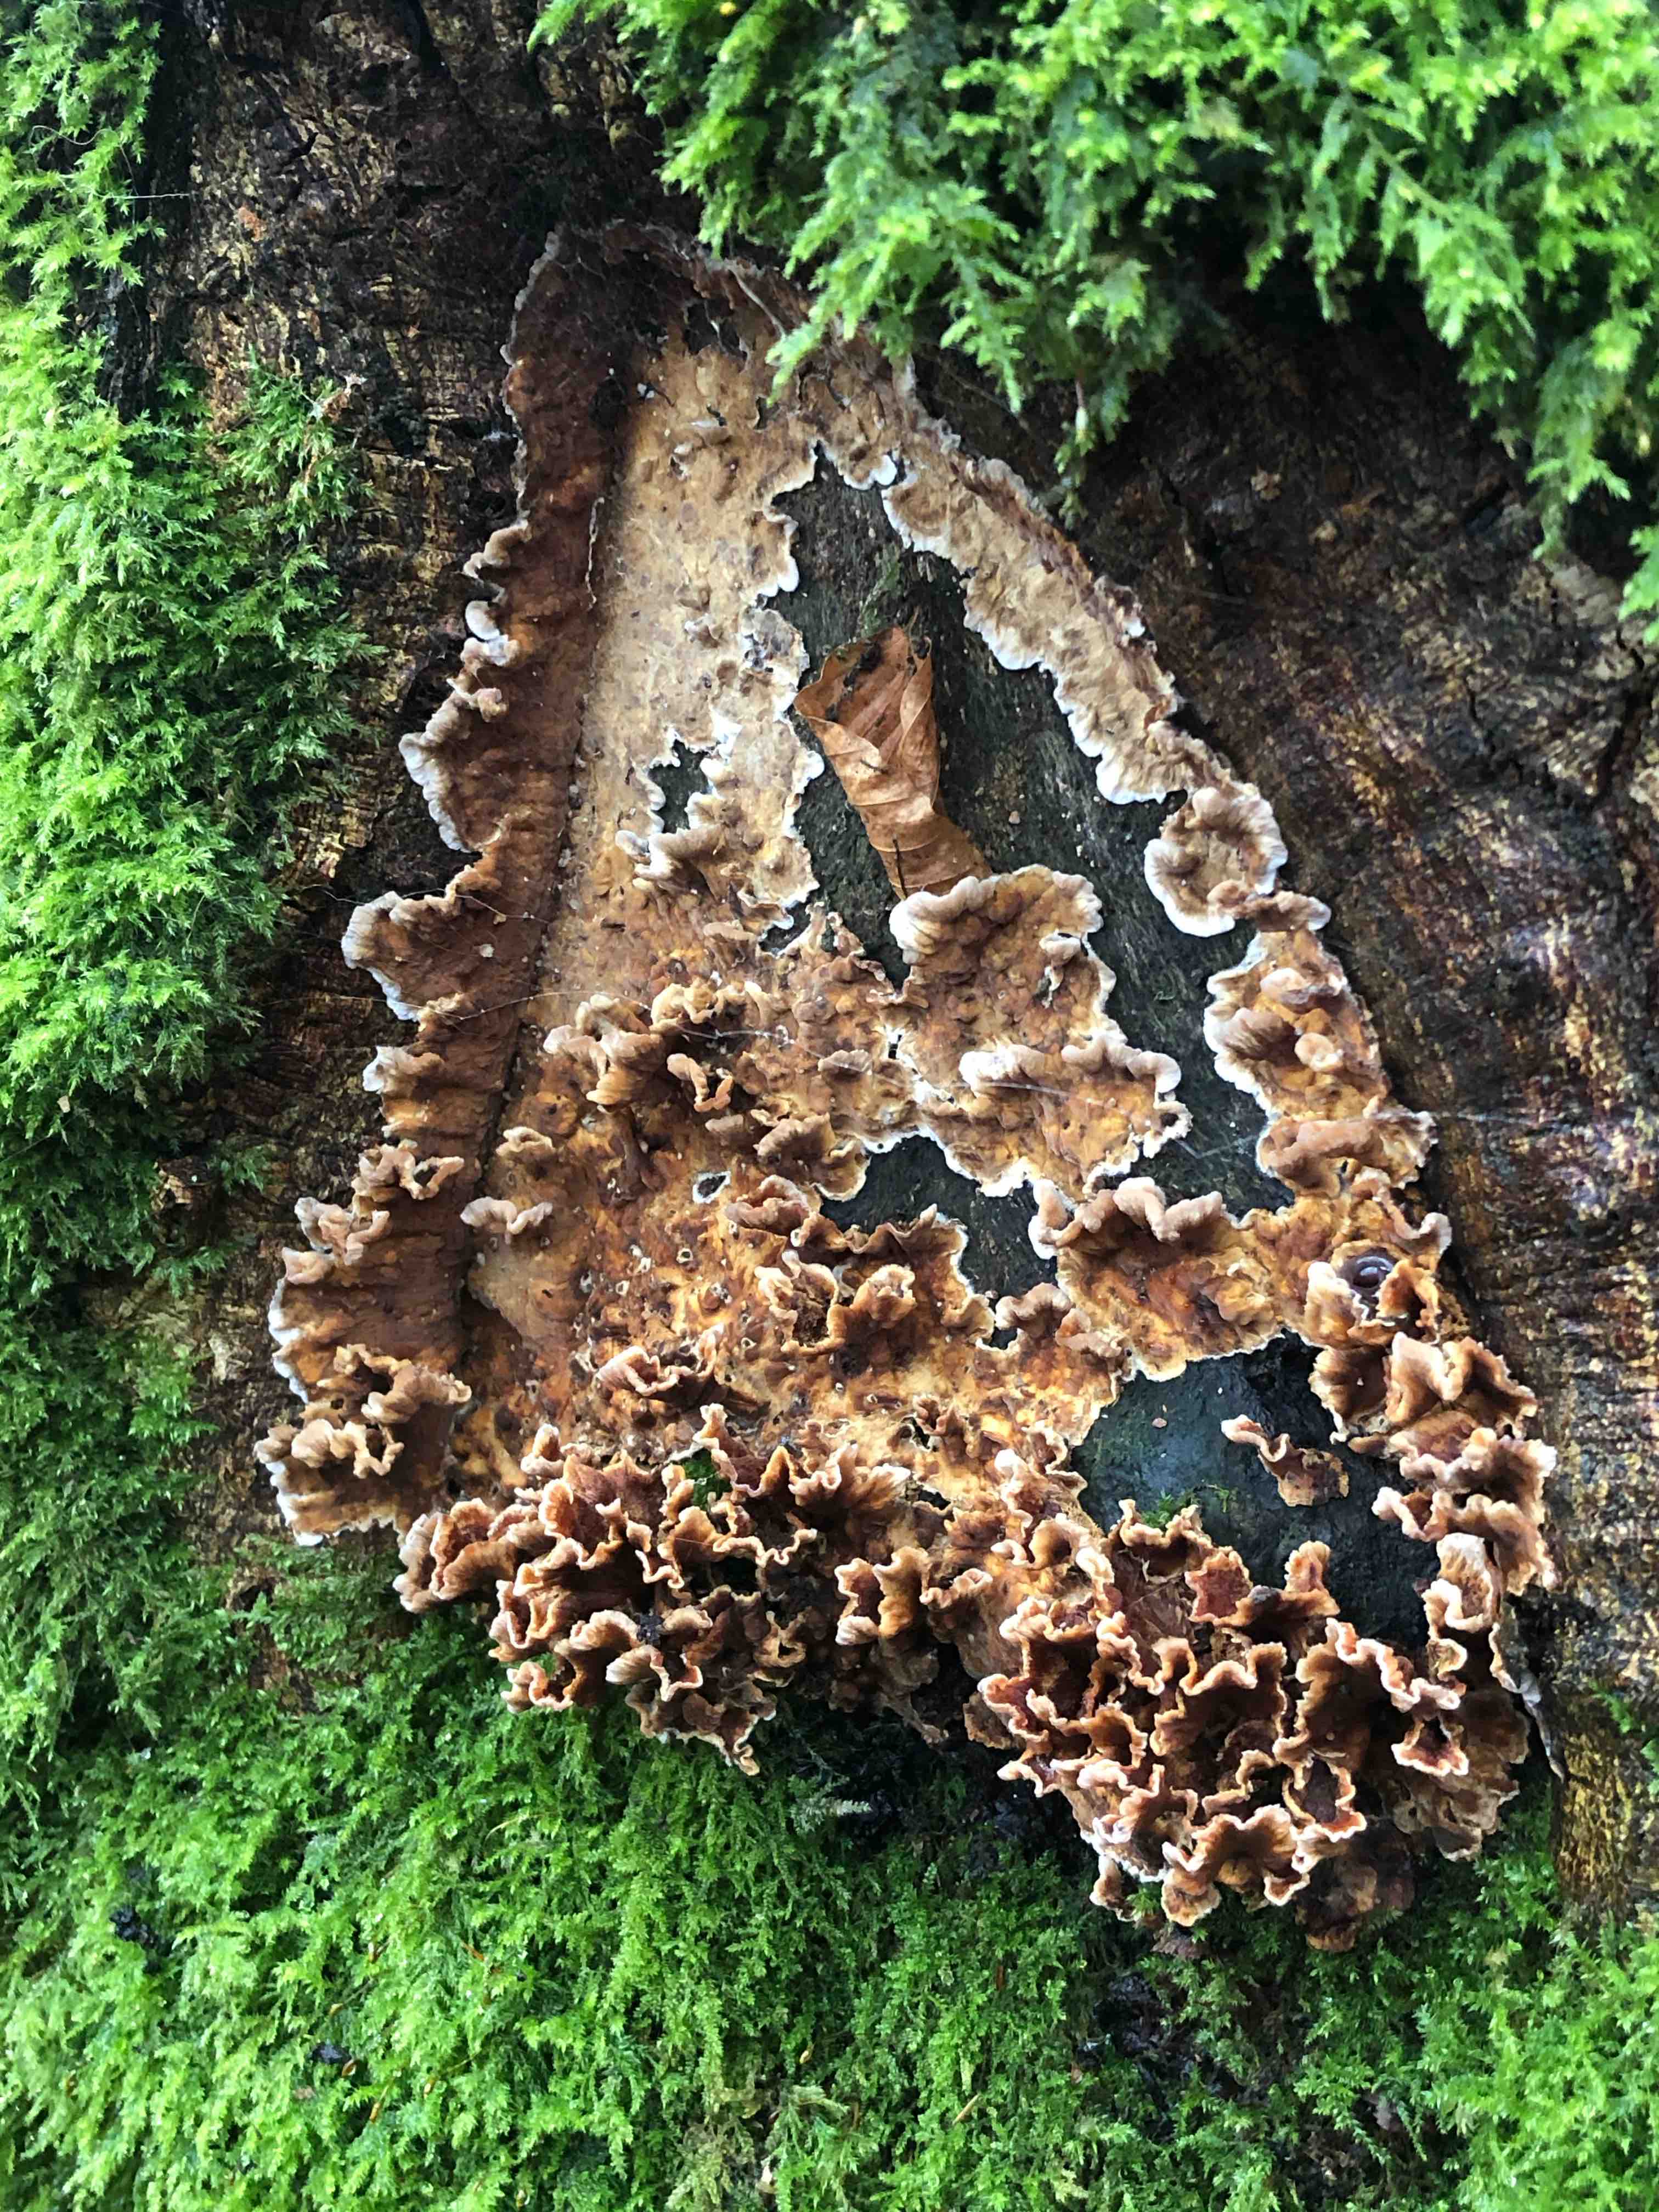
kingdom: Fungi
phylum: Basidiomycota
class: Agaricomycetes
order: Russulales
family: Stereaceae
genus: Stereum
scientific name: Stereum hirsutum
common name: håret lædersvamp
